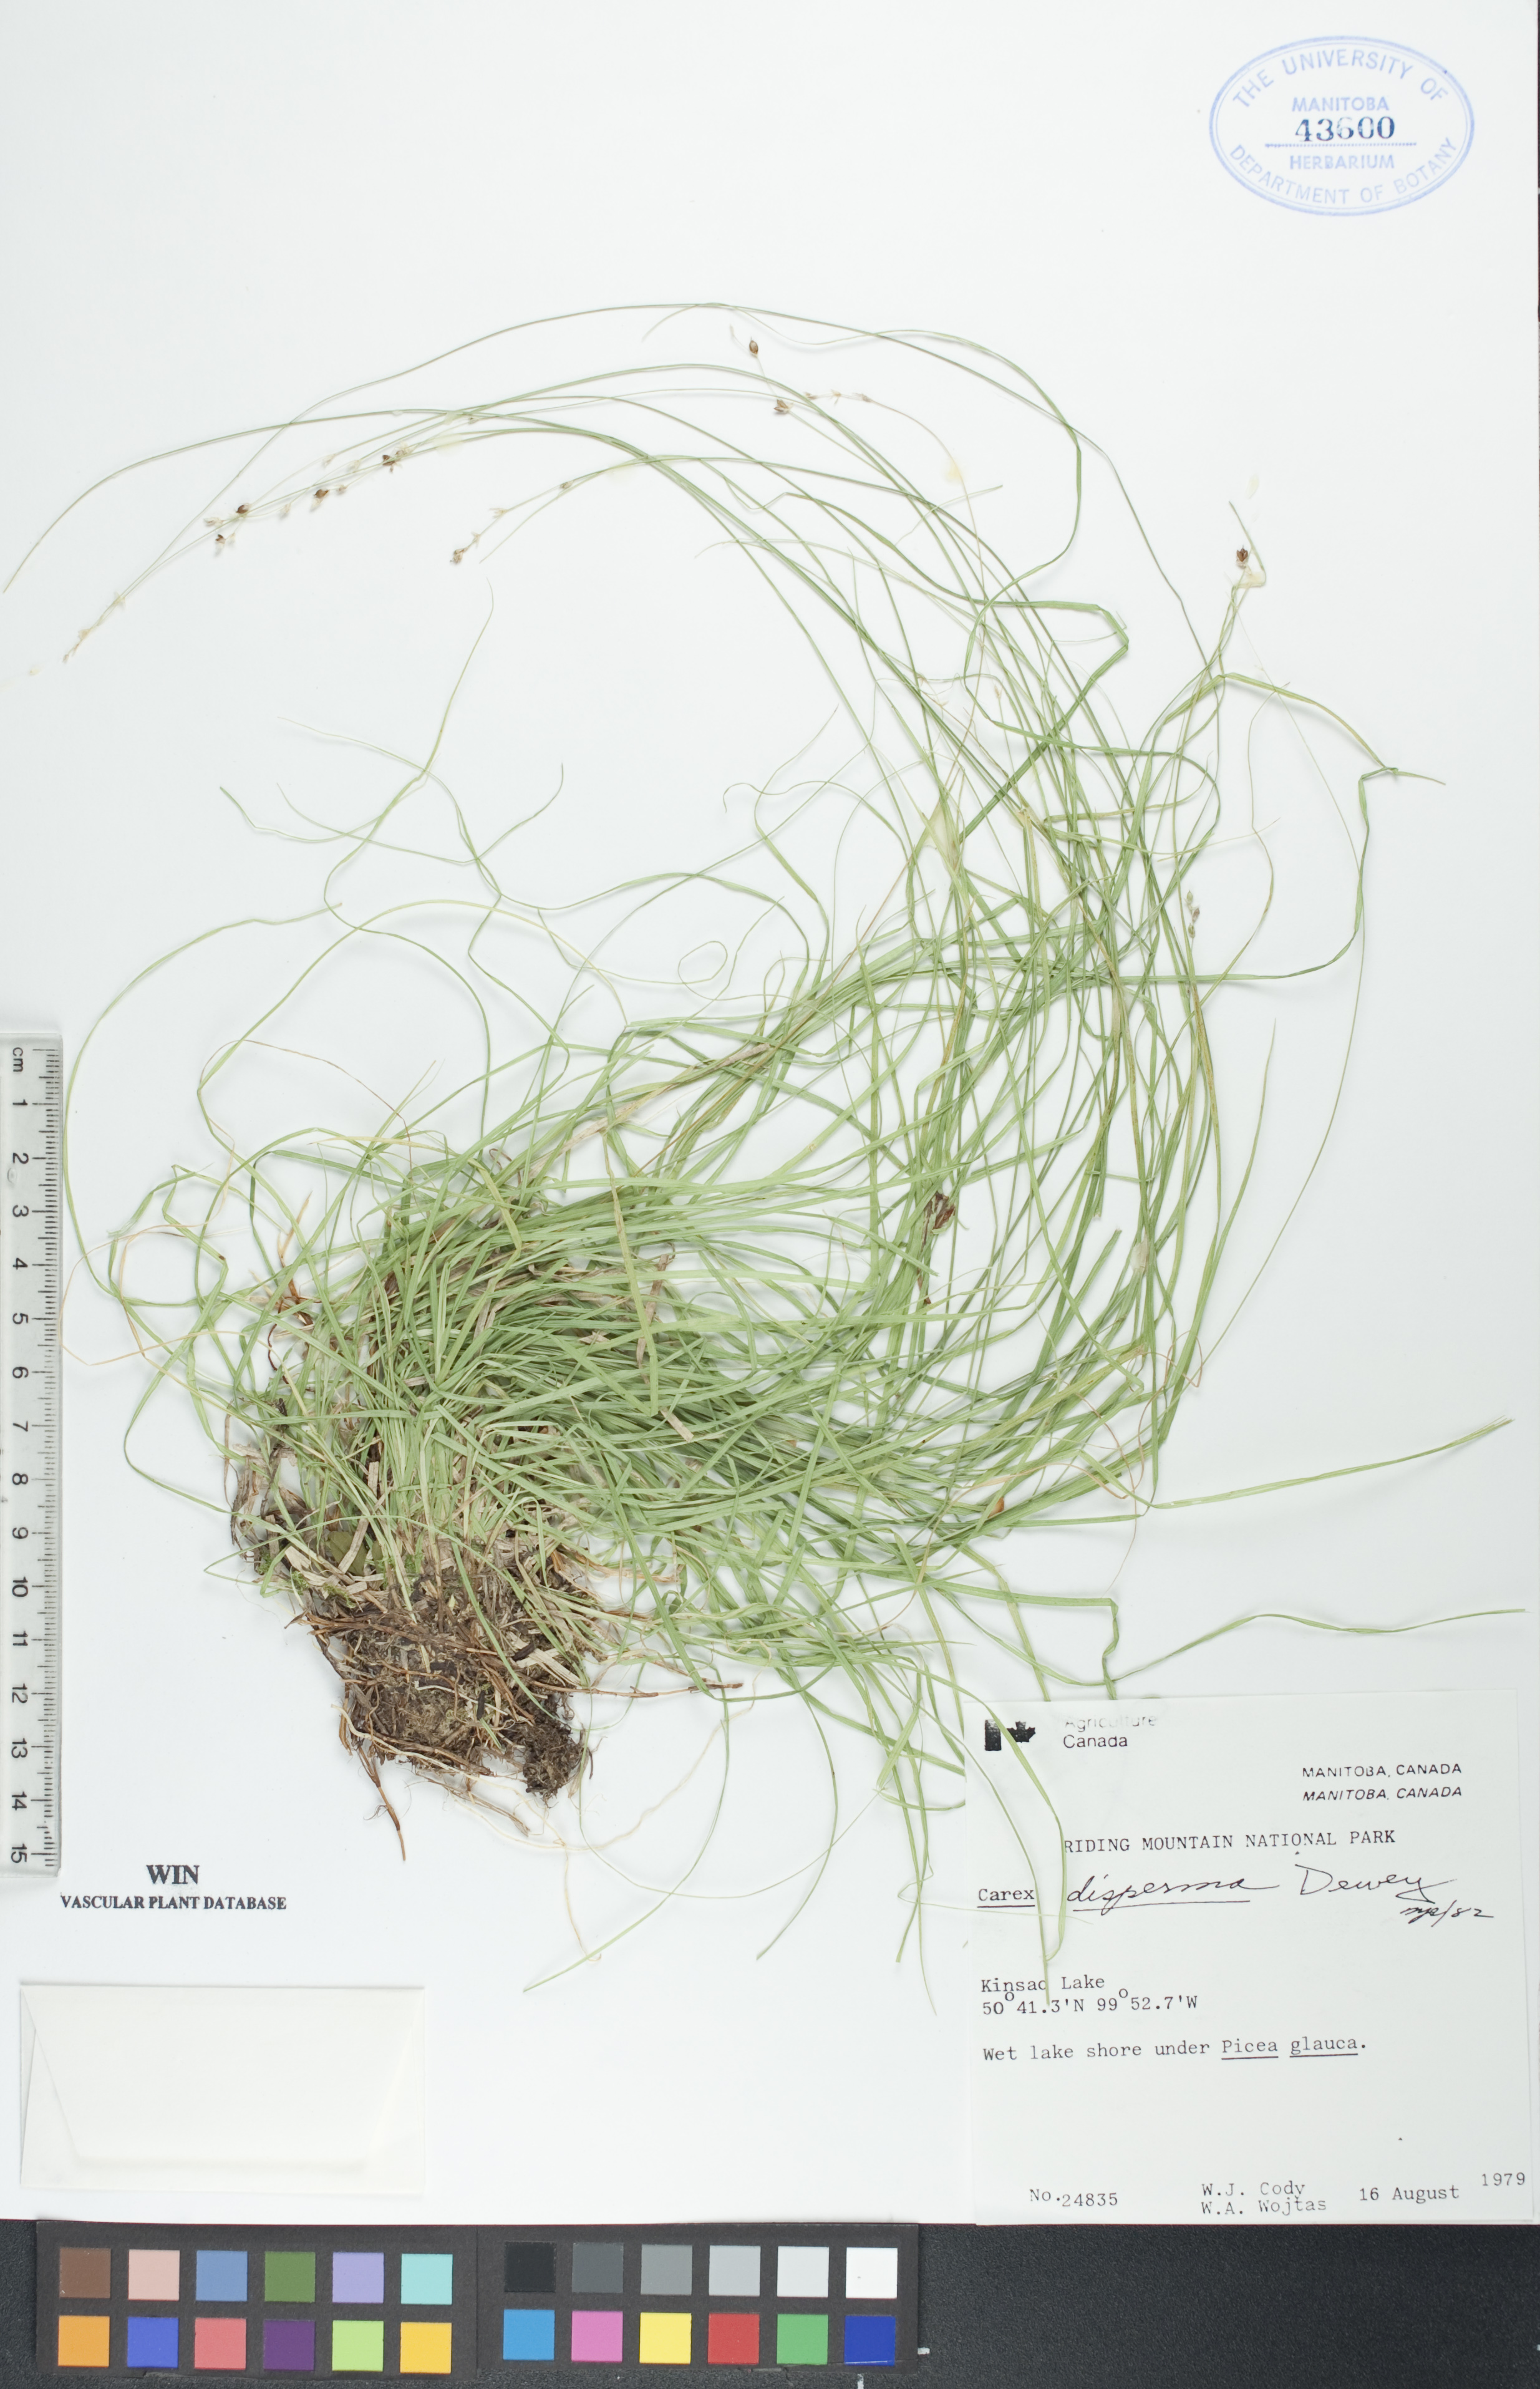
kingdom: Plantae
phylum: Tracheophyta
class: Liliopsida
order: Poales
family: Cyperaceae
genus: Carex
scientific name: Carex disperma
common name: Short-leaved sedge
